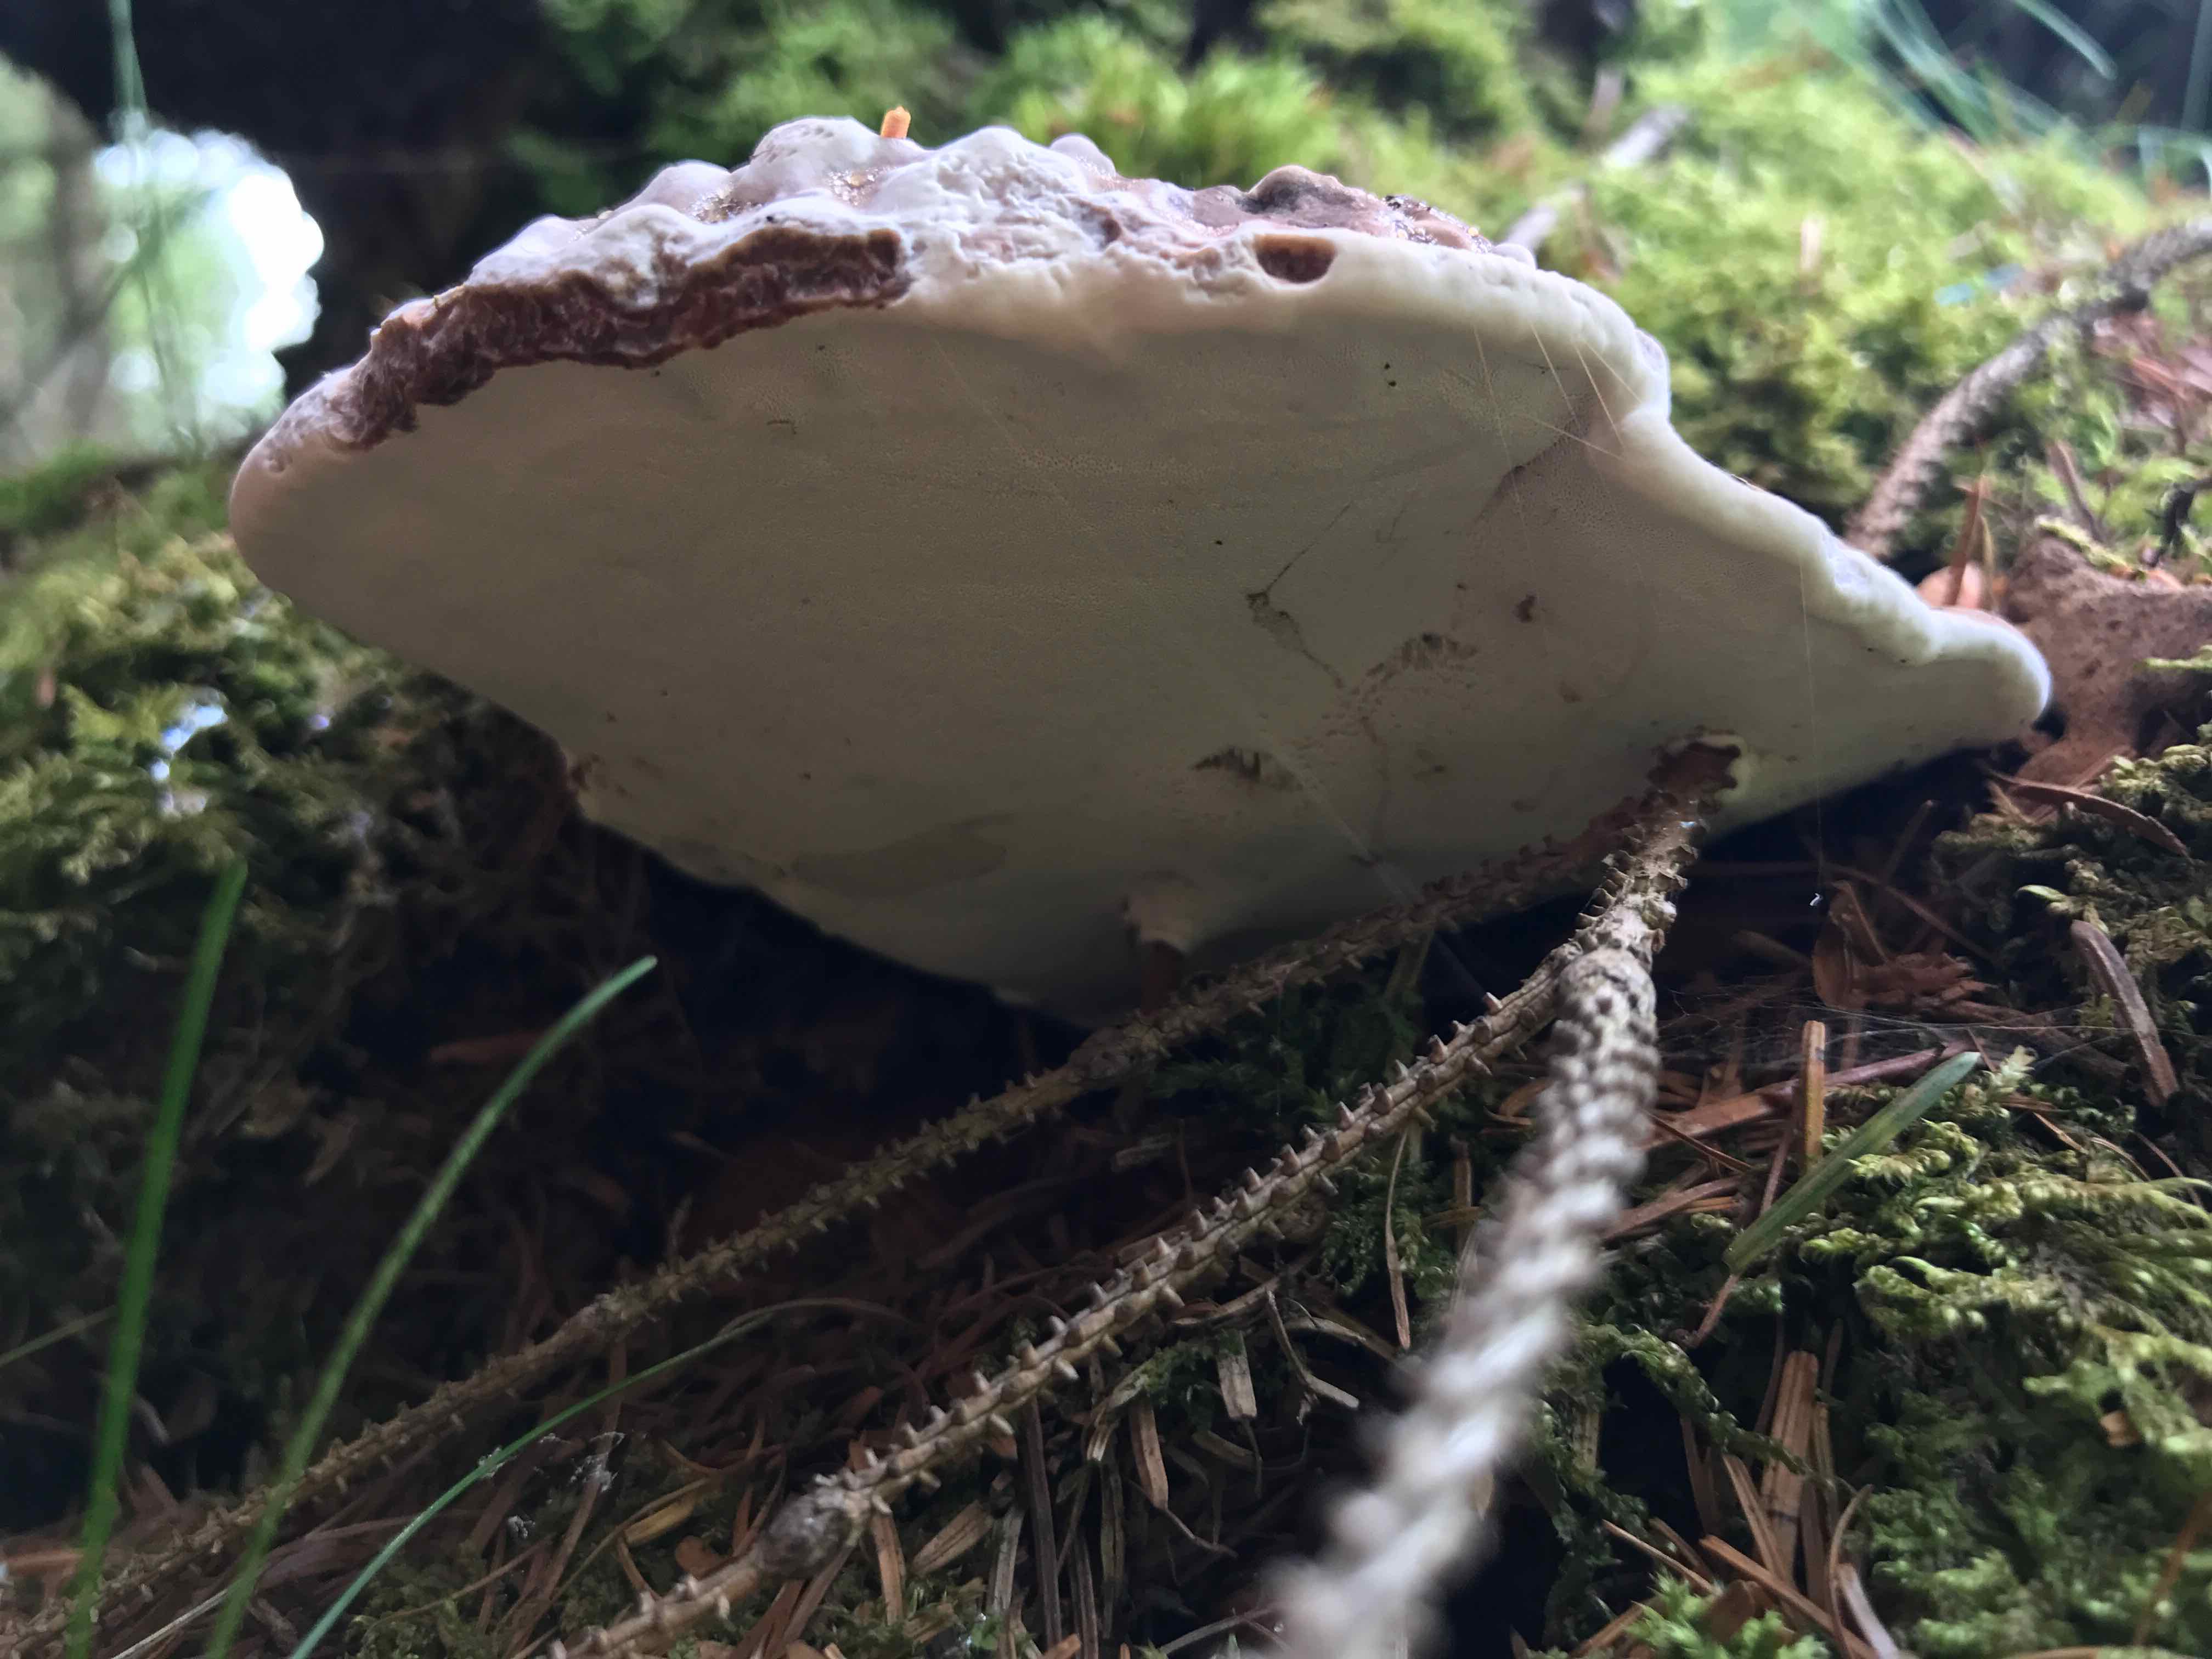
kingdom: Fungi
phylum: Basidiomycota
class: Agaricomycetes
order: Polyporales
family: Polyporaceae
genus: Ganoderma
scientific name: Ganoderma applanatum
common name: flad lakporesvamp
